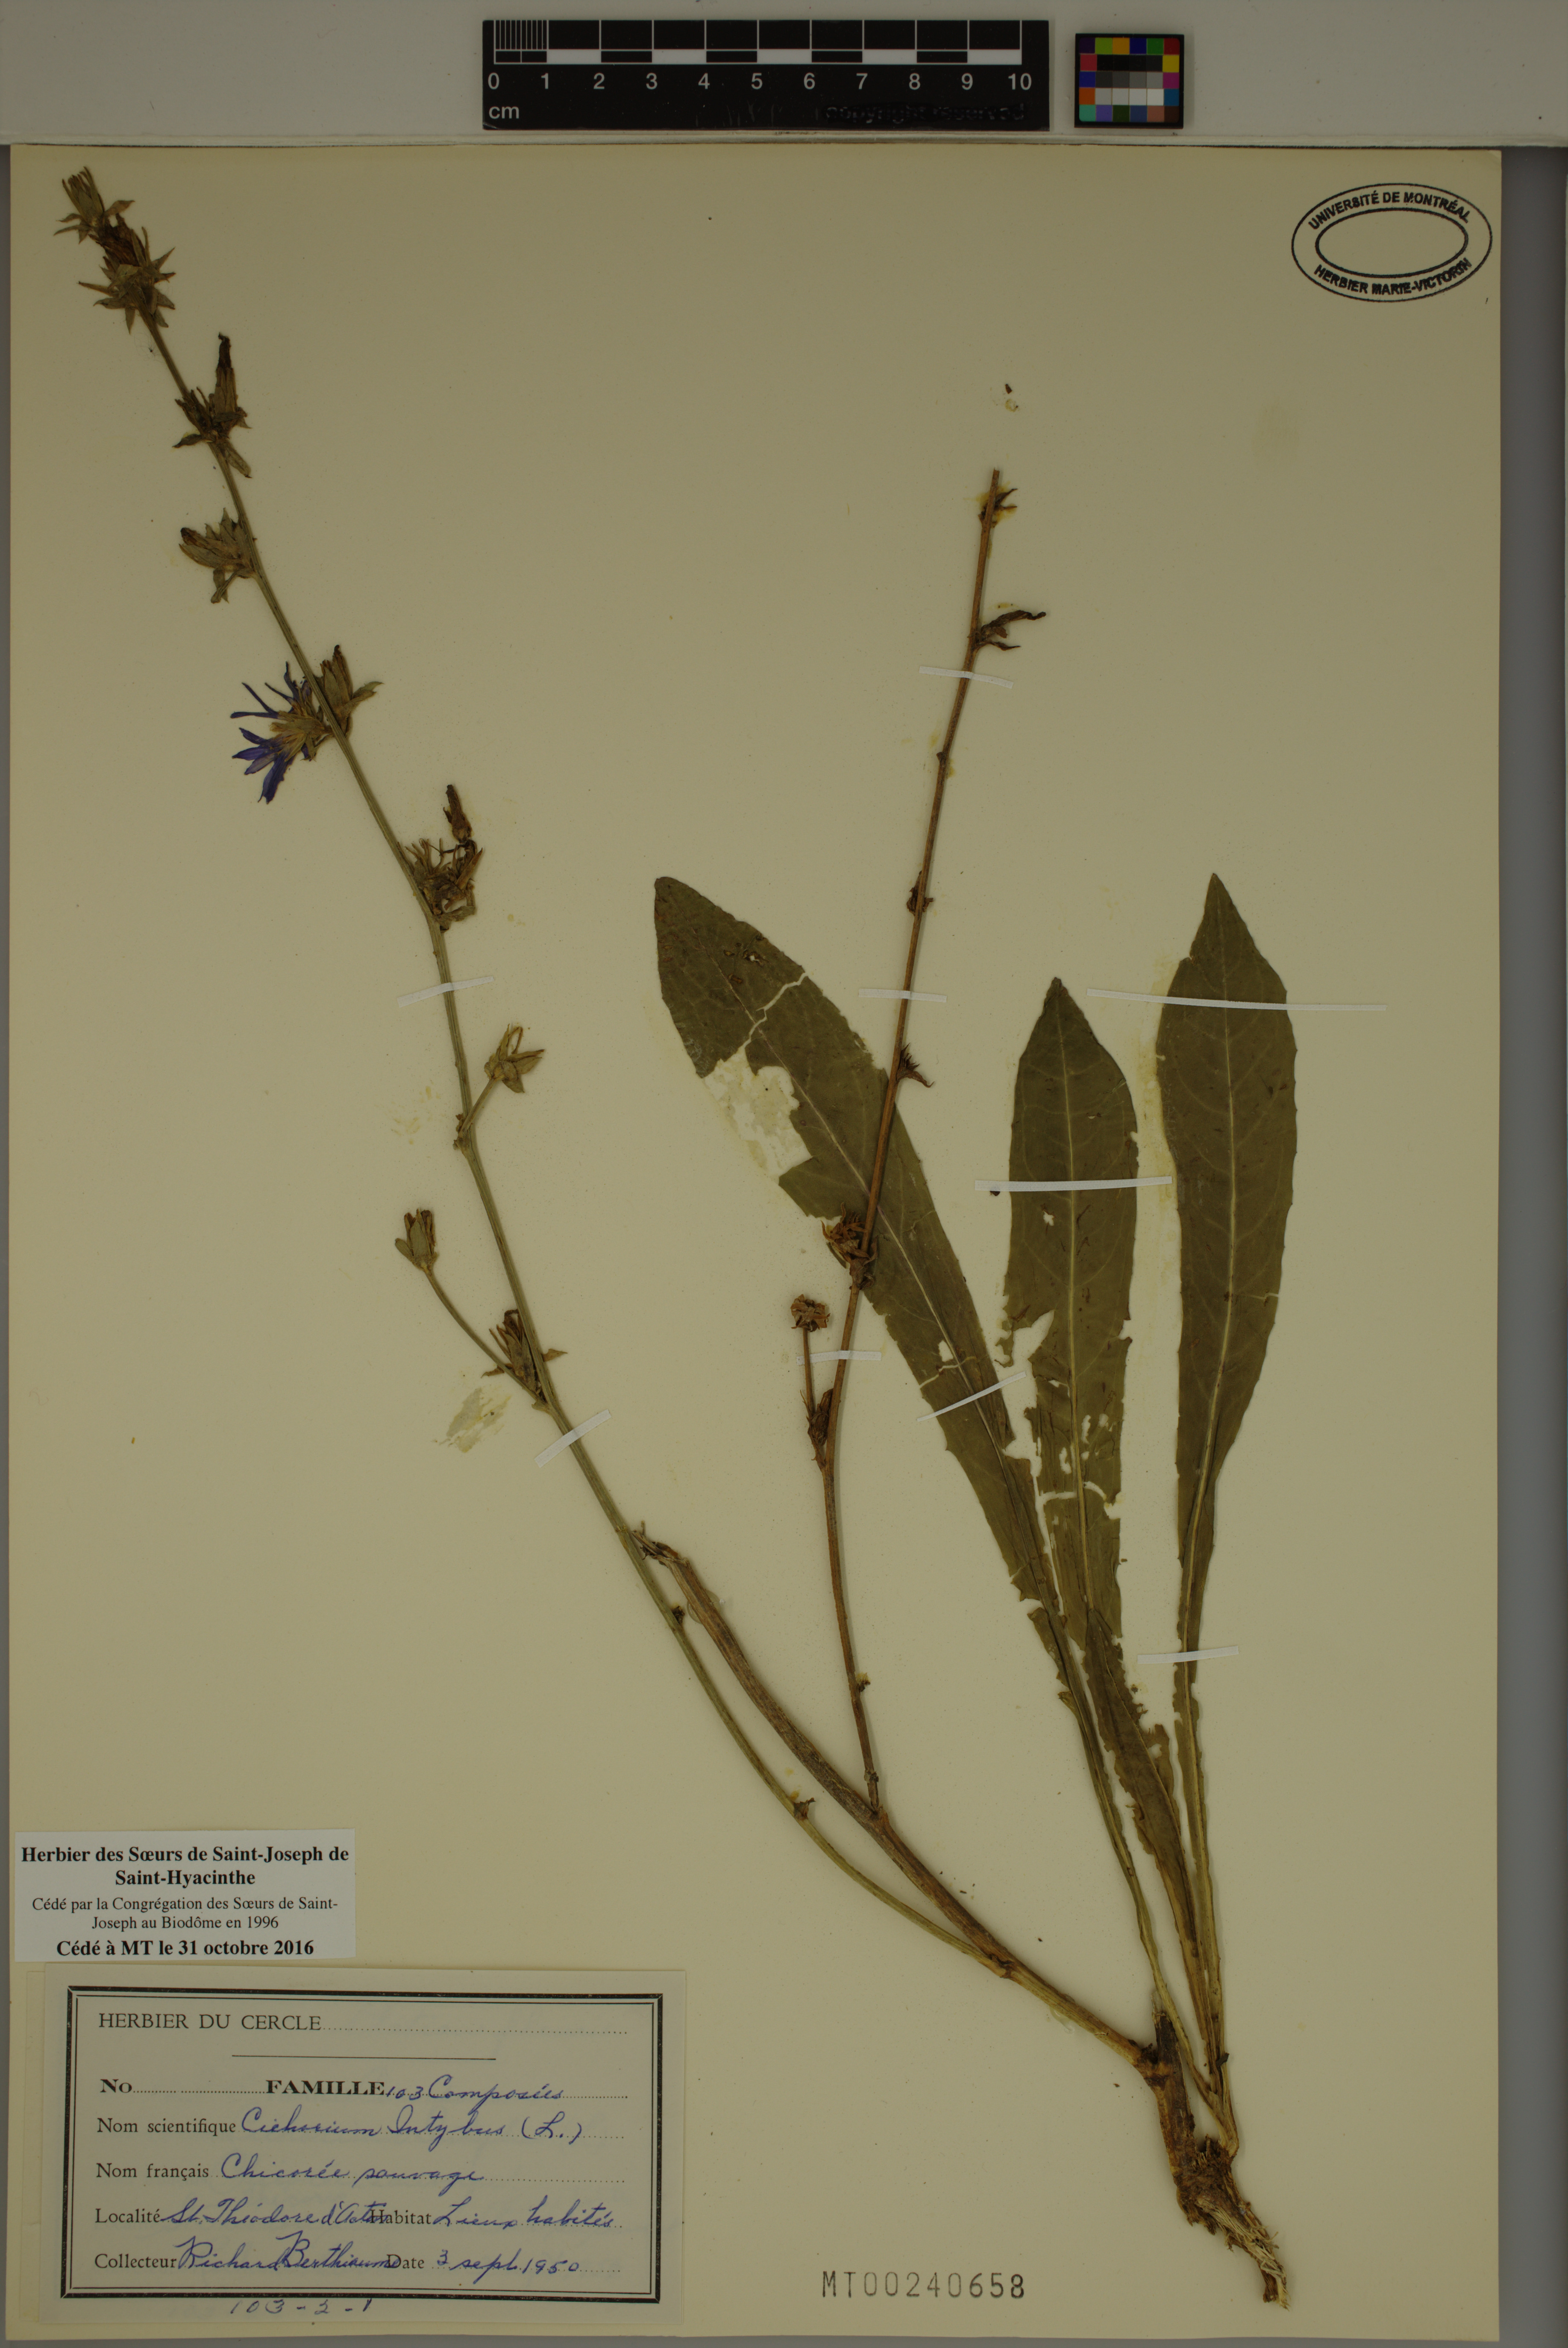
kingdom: Plantae
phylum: Tracheophyta
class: Magnoliopsida
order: Asterales
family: Asteraceae
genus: Cichorium
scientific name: Cichorium intybus
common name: Chicory
